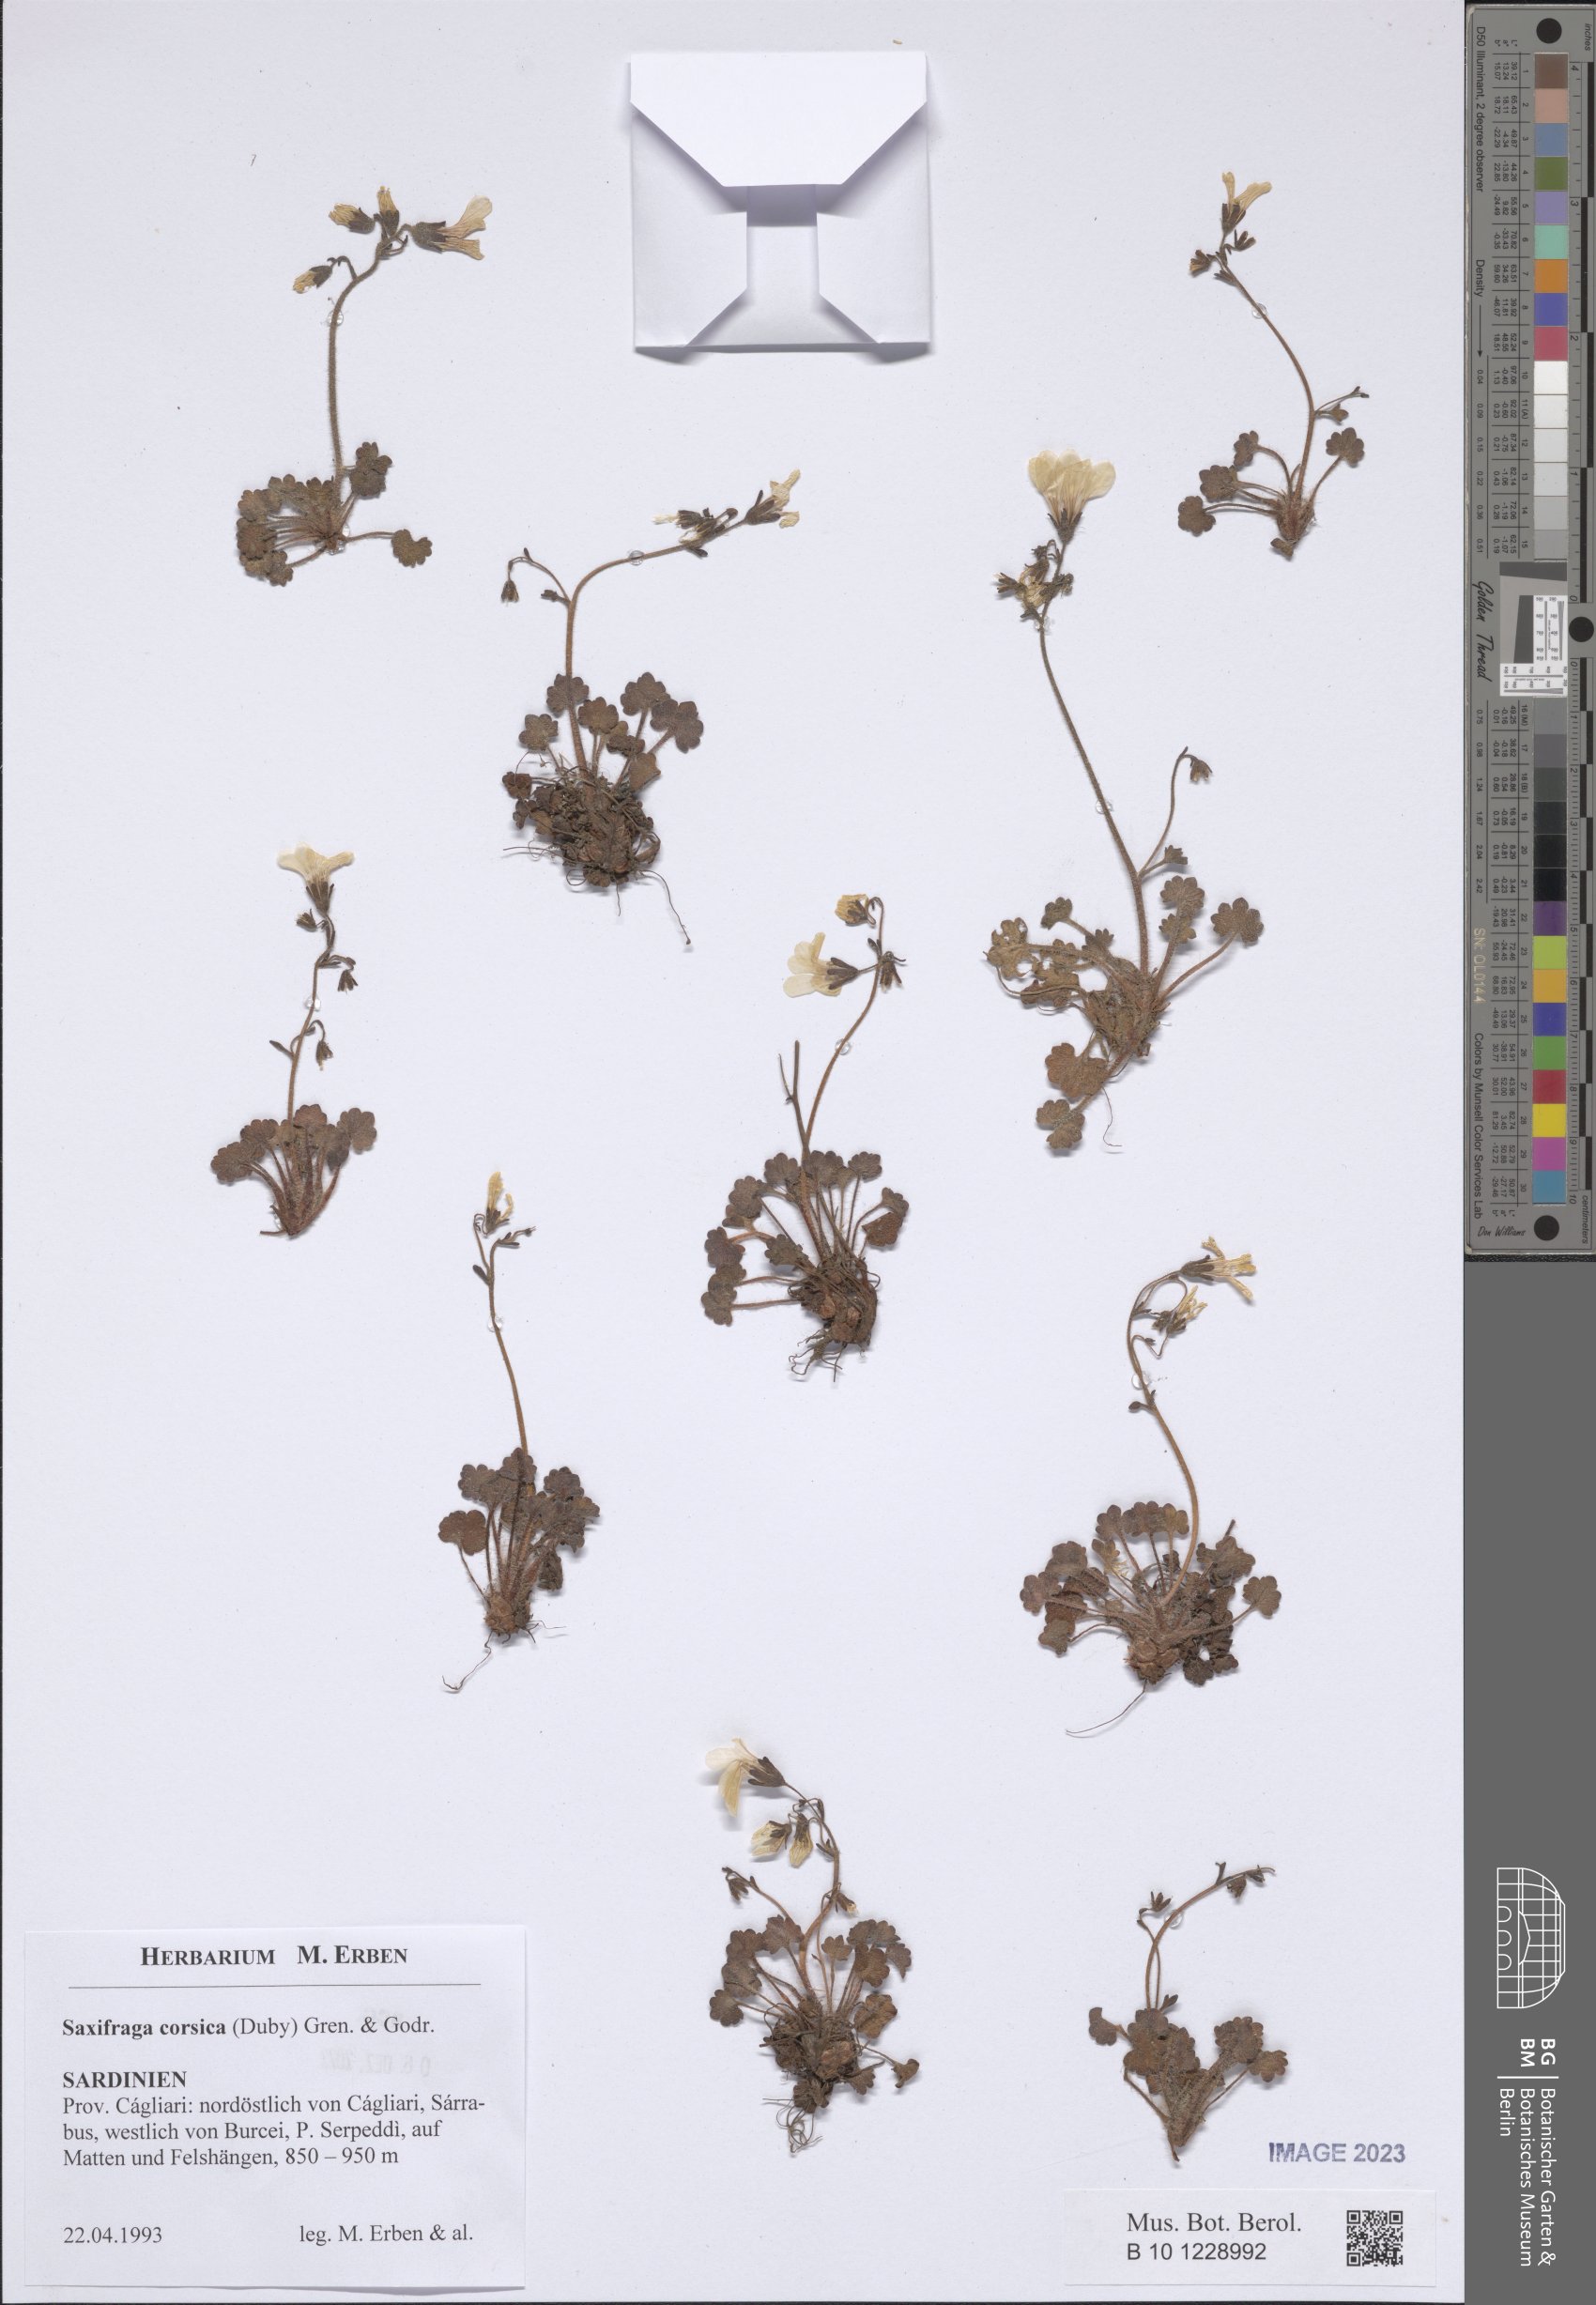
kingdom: Plantae
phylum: Tracheophyta
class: Magnoliopsida
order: Saxifragales
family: Saxifragaceae
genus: Saxifraga
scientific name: Saxifraga corsica
